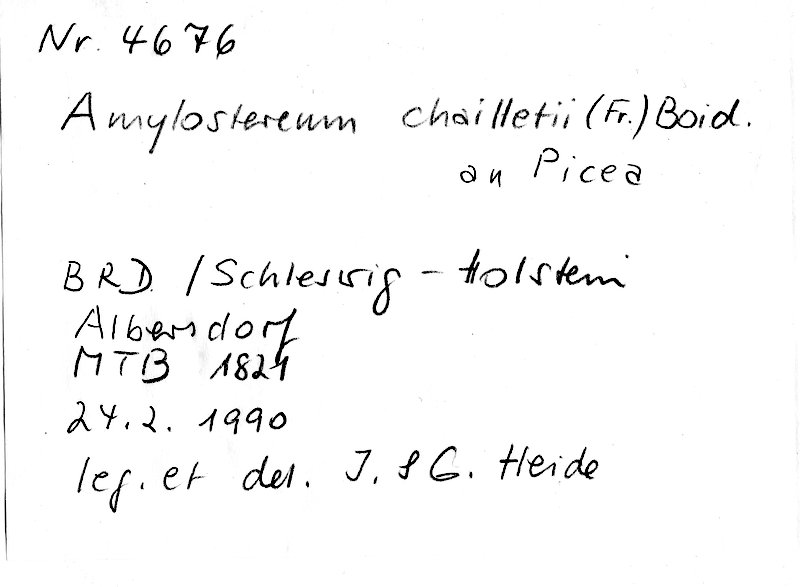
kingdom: Plantae
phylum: Tracheophyta
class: Pinopsida
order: Pinales
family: Pinaceae
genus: Picea
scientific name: Picea
